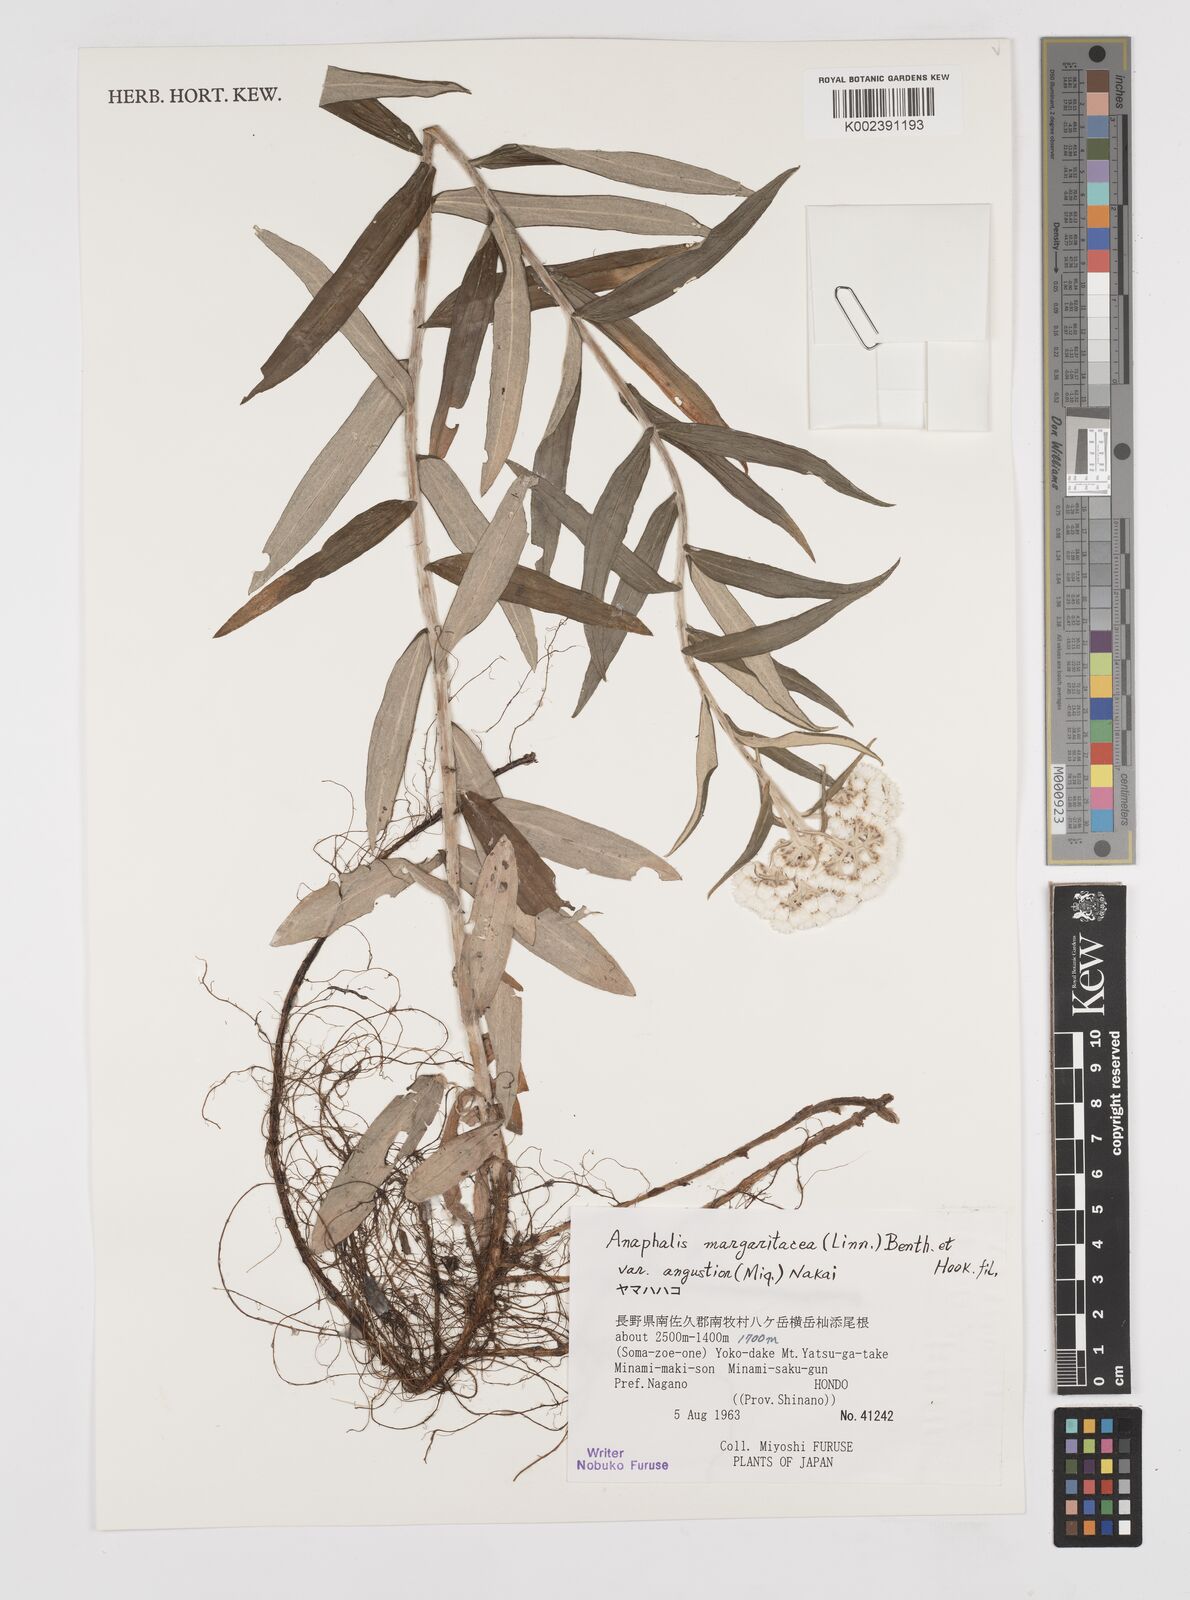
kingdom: Plantae
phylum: Tracheophyta
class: Magnoliopsida
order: Asterales
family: Asteraceae
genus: Anaphalis
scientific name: Anaphalis margaritacea
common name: Pearly everlasting
